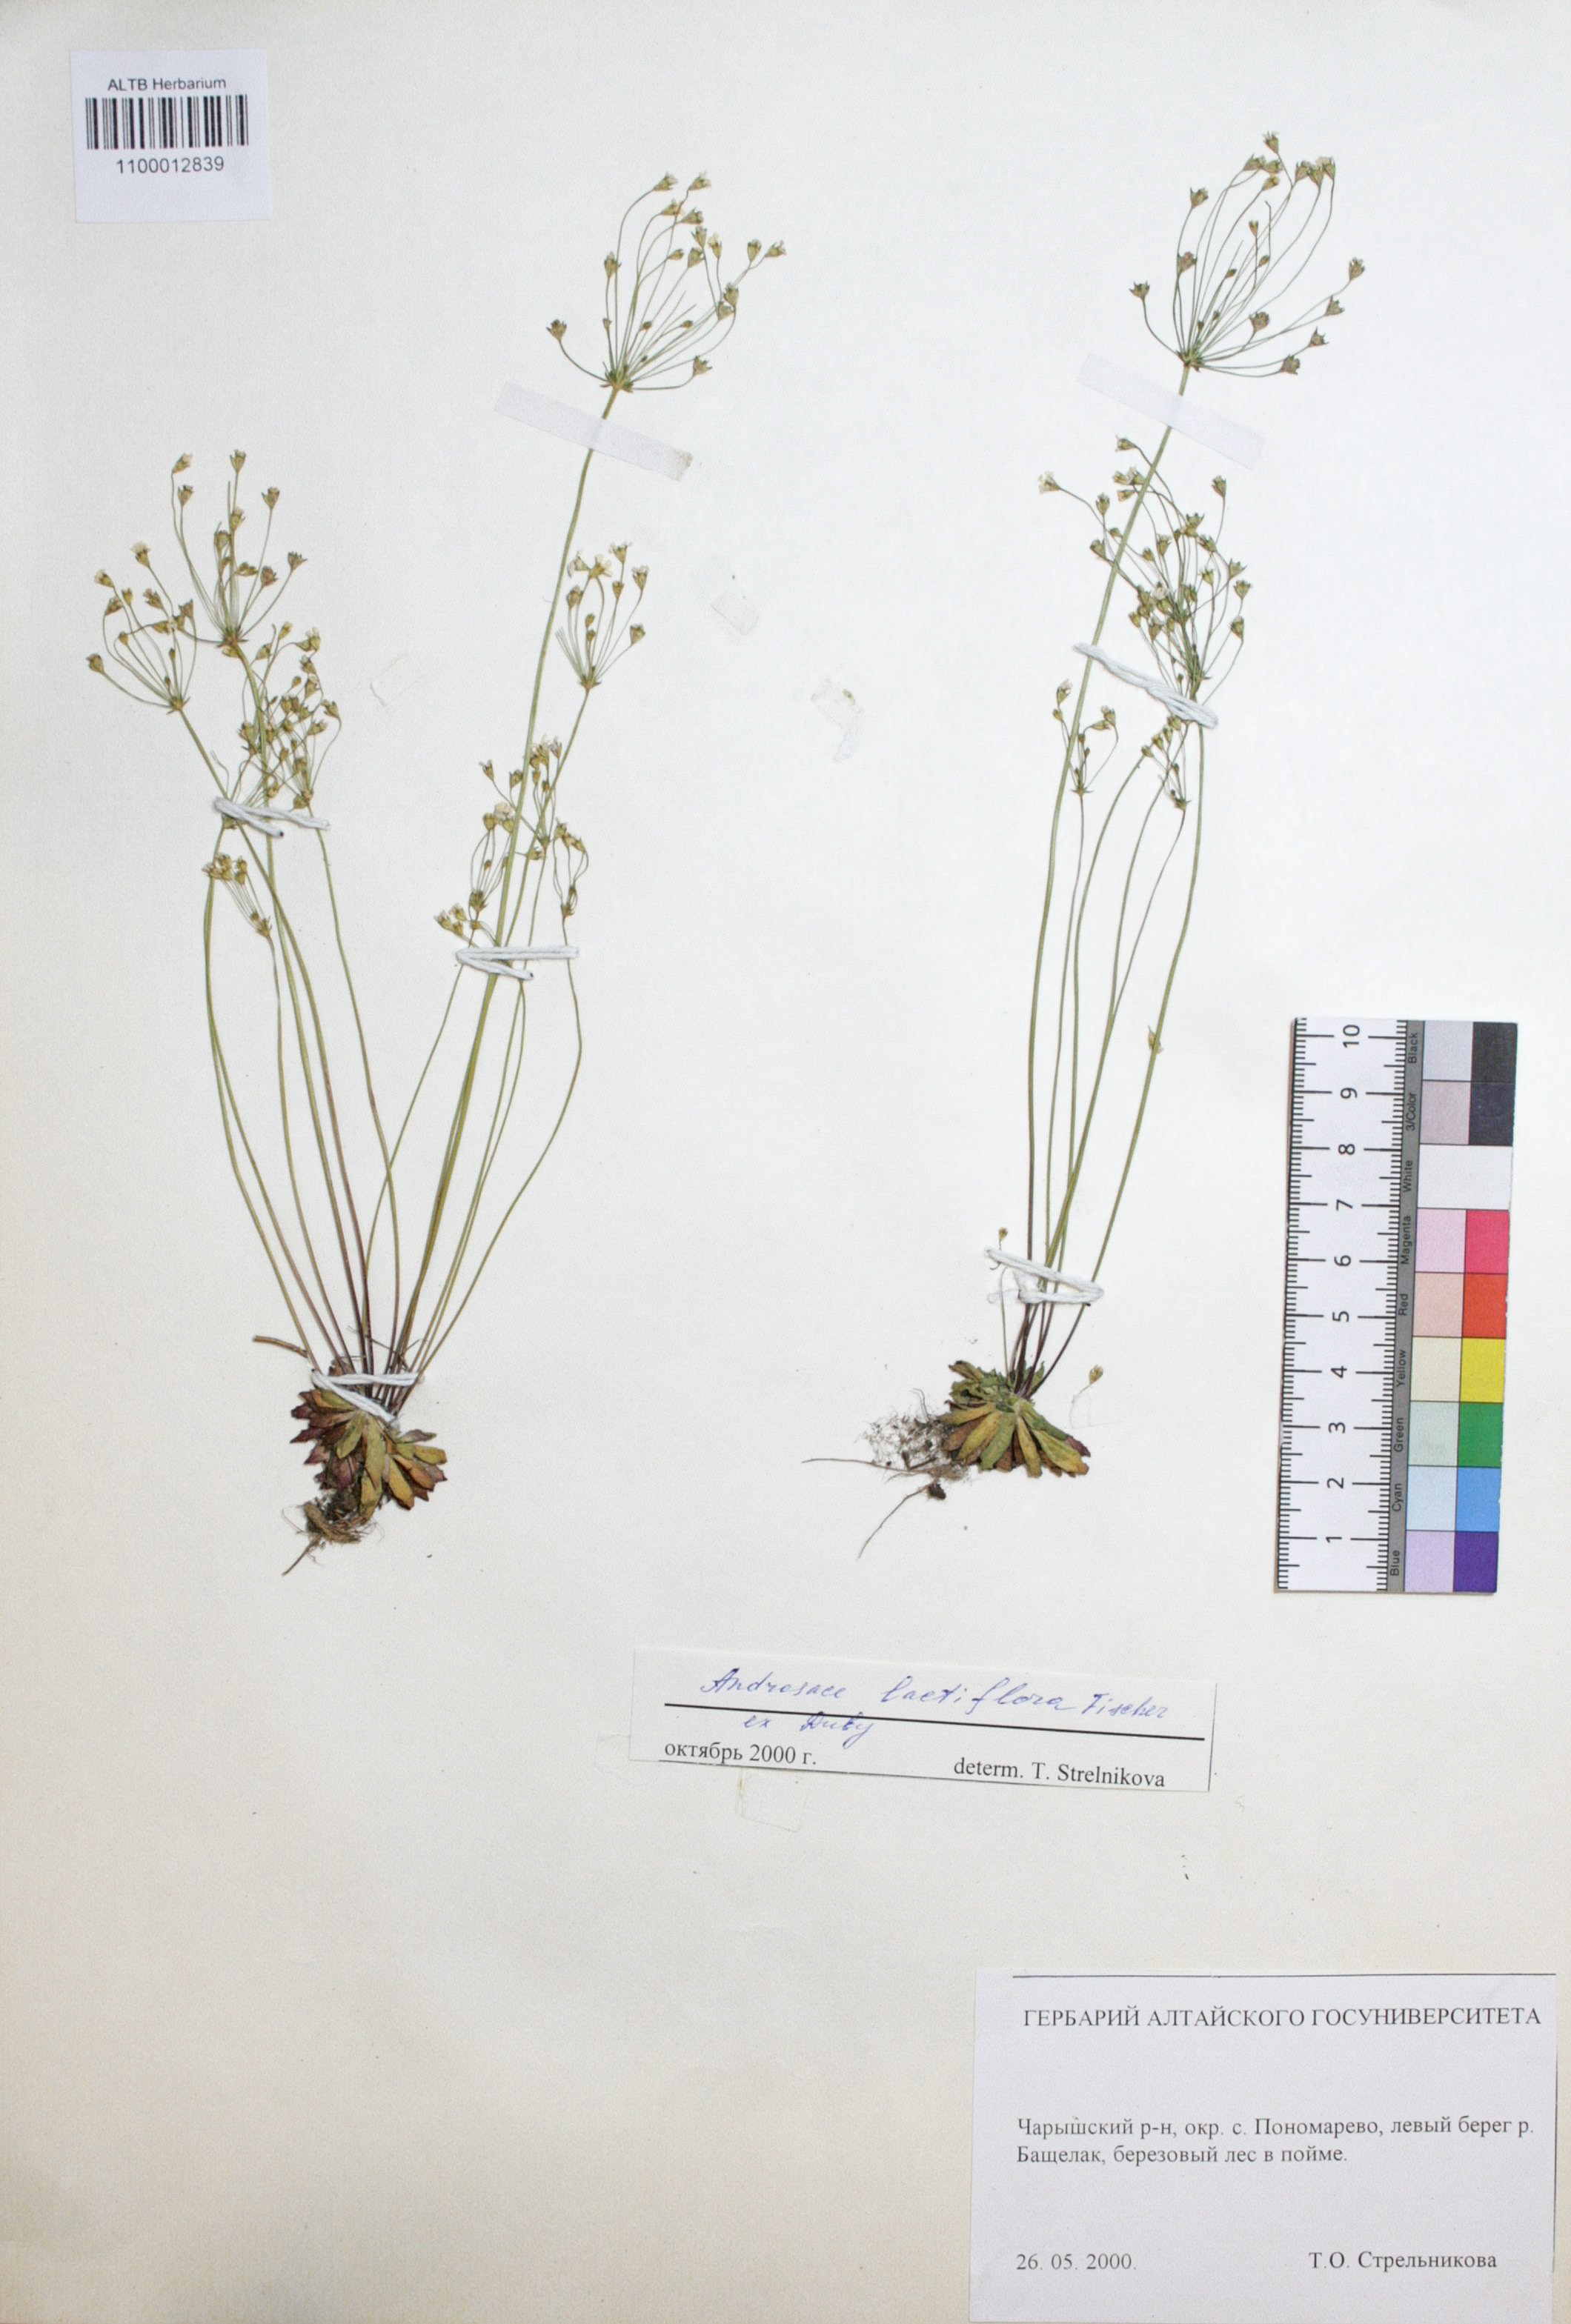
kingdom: Plantae
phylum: Tracheophyta
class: Magnoliopsida
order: Ericales
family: Primulaceae
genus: Androsace
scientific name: Androsace lactiflora
